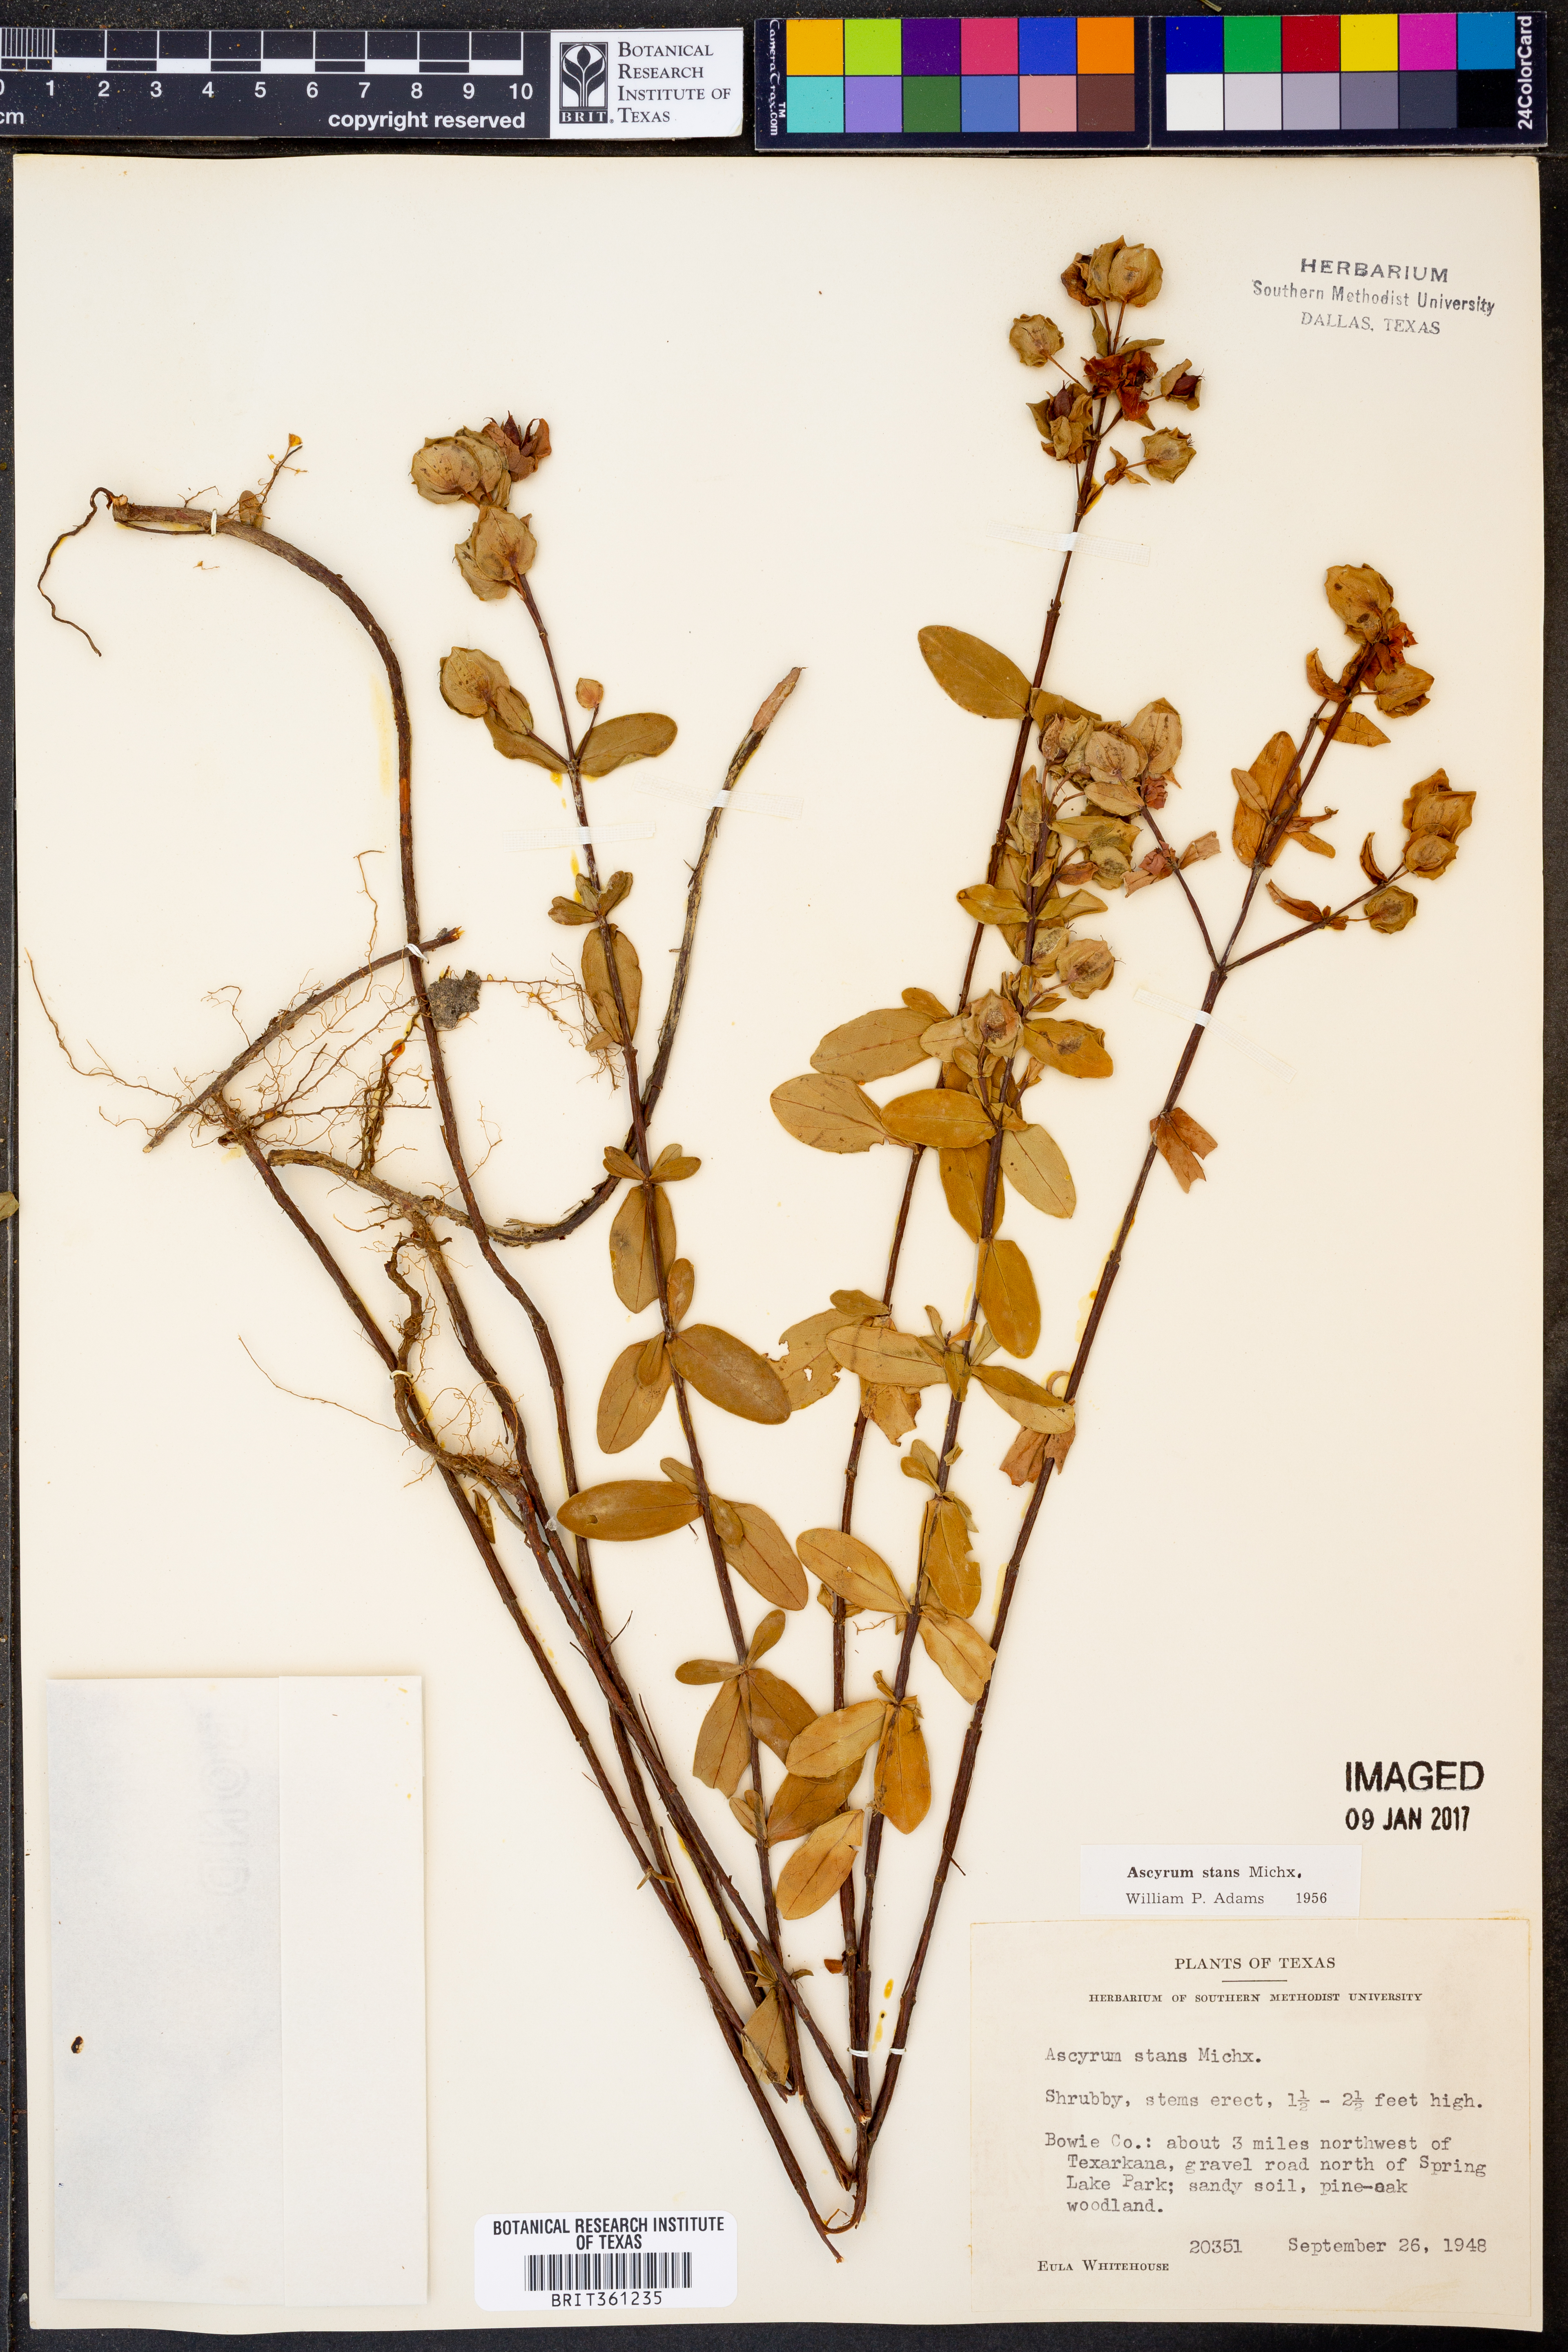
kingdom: Plantae
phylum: Tracheophyta
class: Magnoliopsida
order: Malpighiales
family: Hypericaceae
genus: Hypericum
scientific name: Hypericum crux-andreae
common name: St.-peter's-wort
